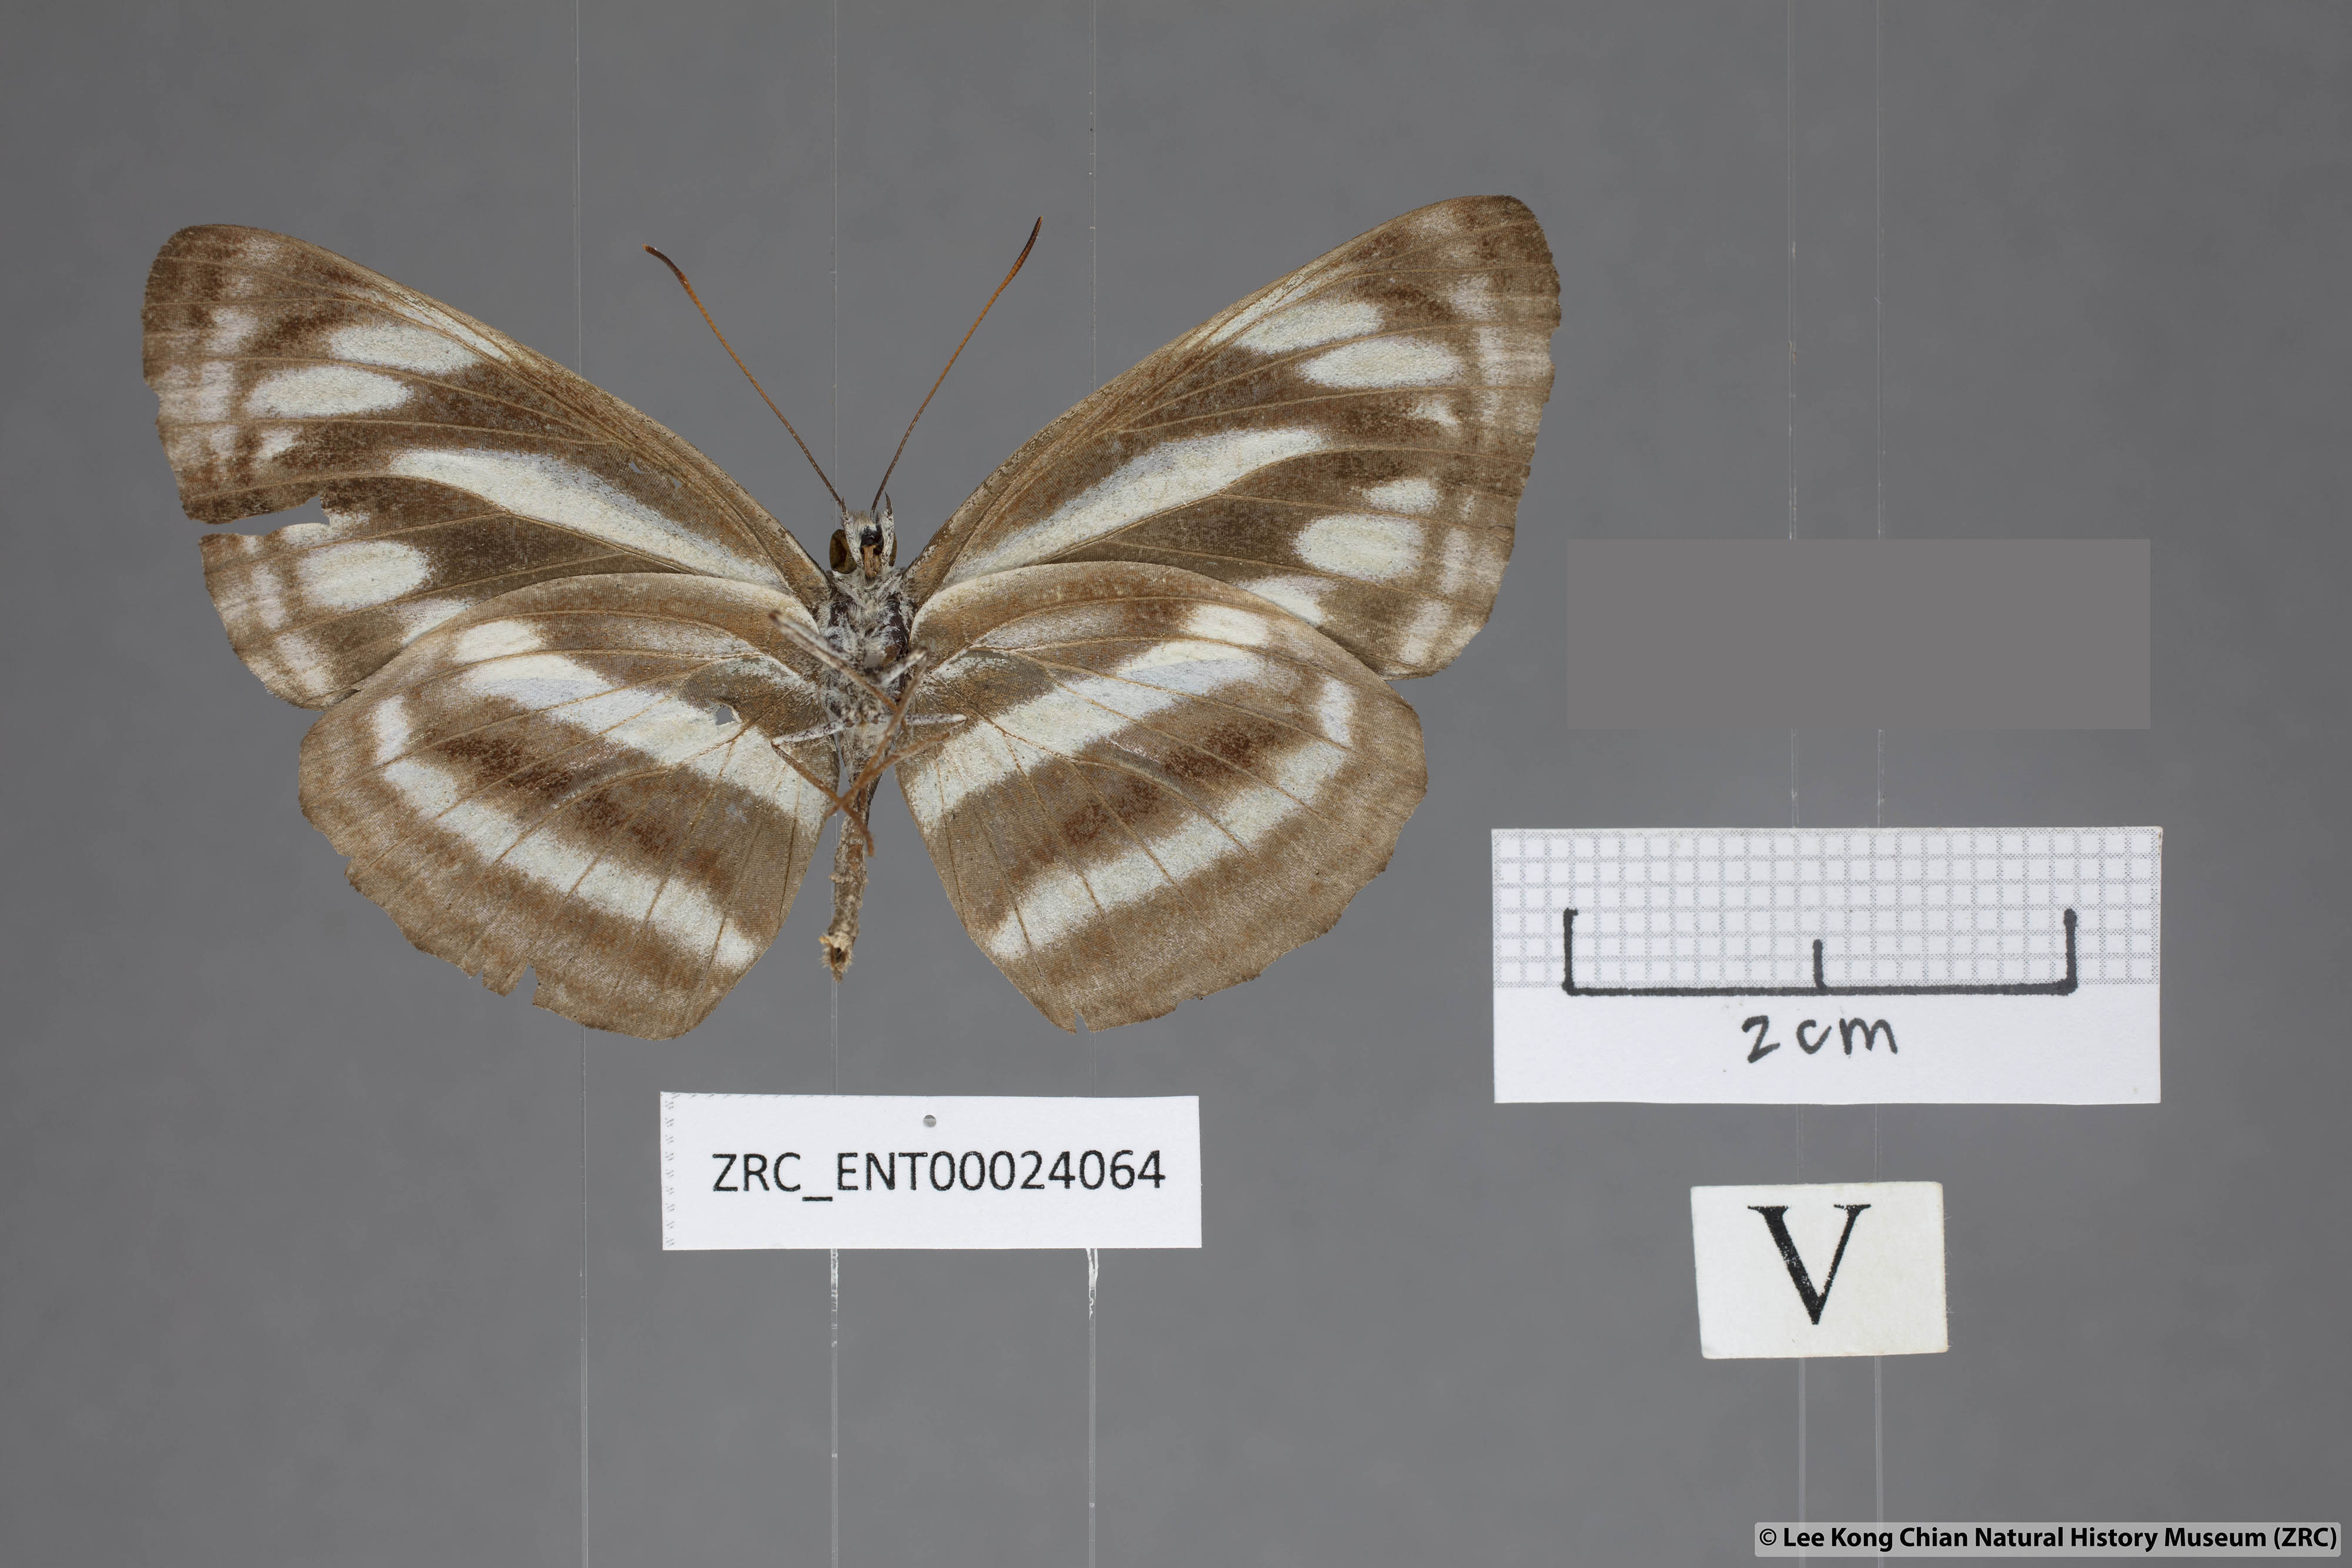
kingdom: Animalia
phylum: Arthropoda
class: Insecta
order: Lepidoptera
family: Nymphalidae
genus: Neptis
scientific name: Neptis sankara
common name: Broad-banded sailer
